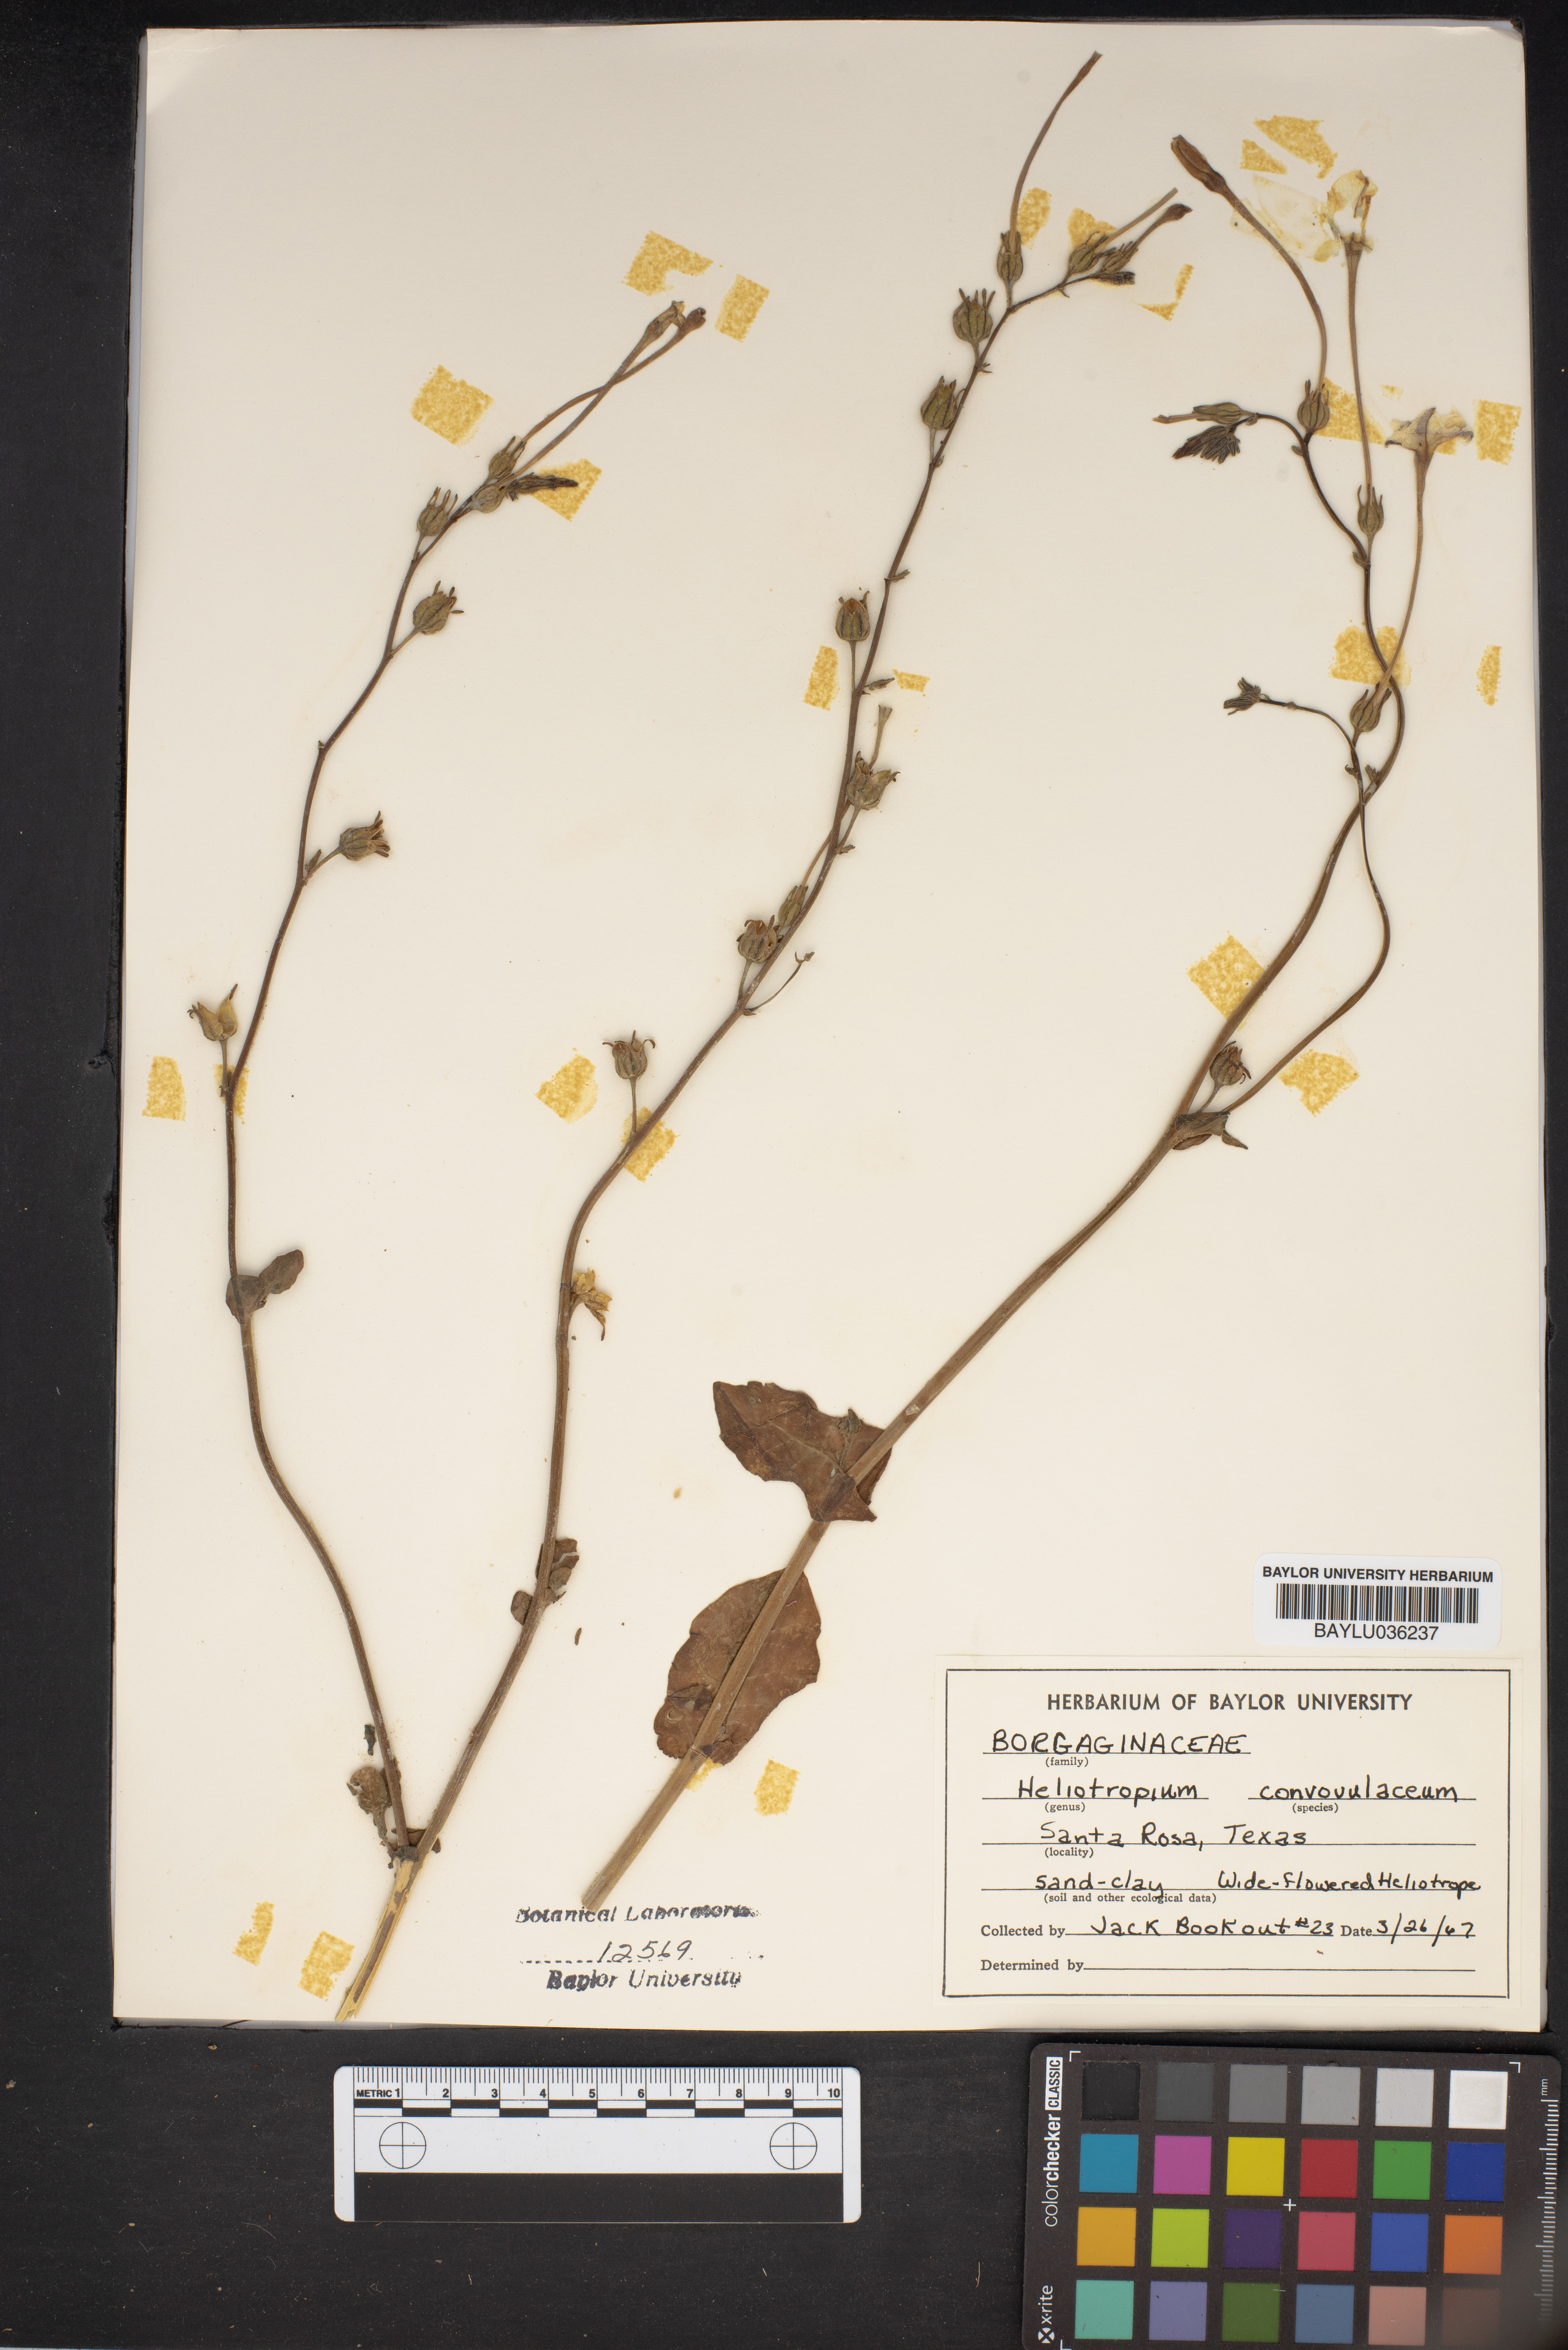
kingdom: Plantae
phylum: Tracheophyta
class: Magnoliopsida
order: Boraginales
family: Heliotropiaceae
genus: Euploca
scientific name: Euploca convolvulacea
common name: Bindweed heliotrope
